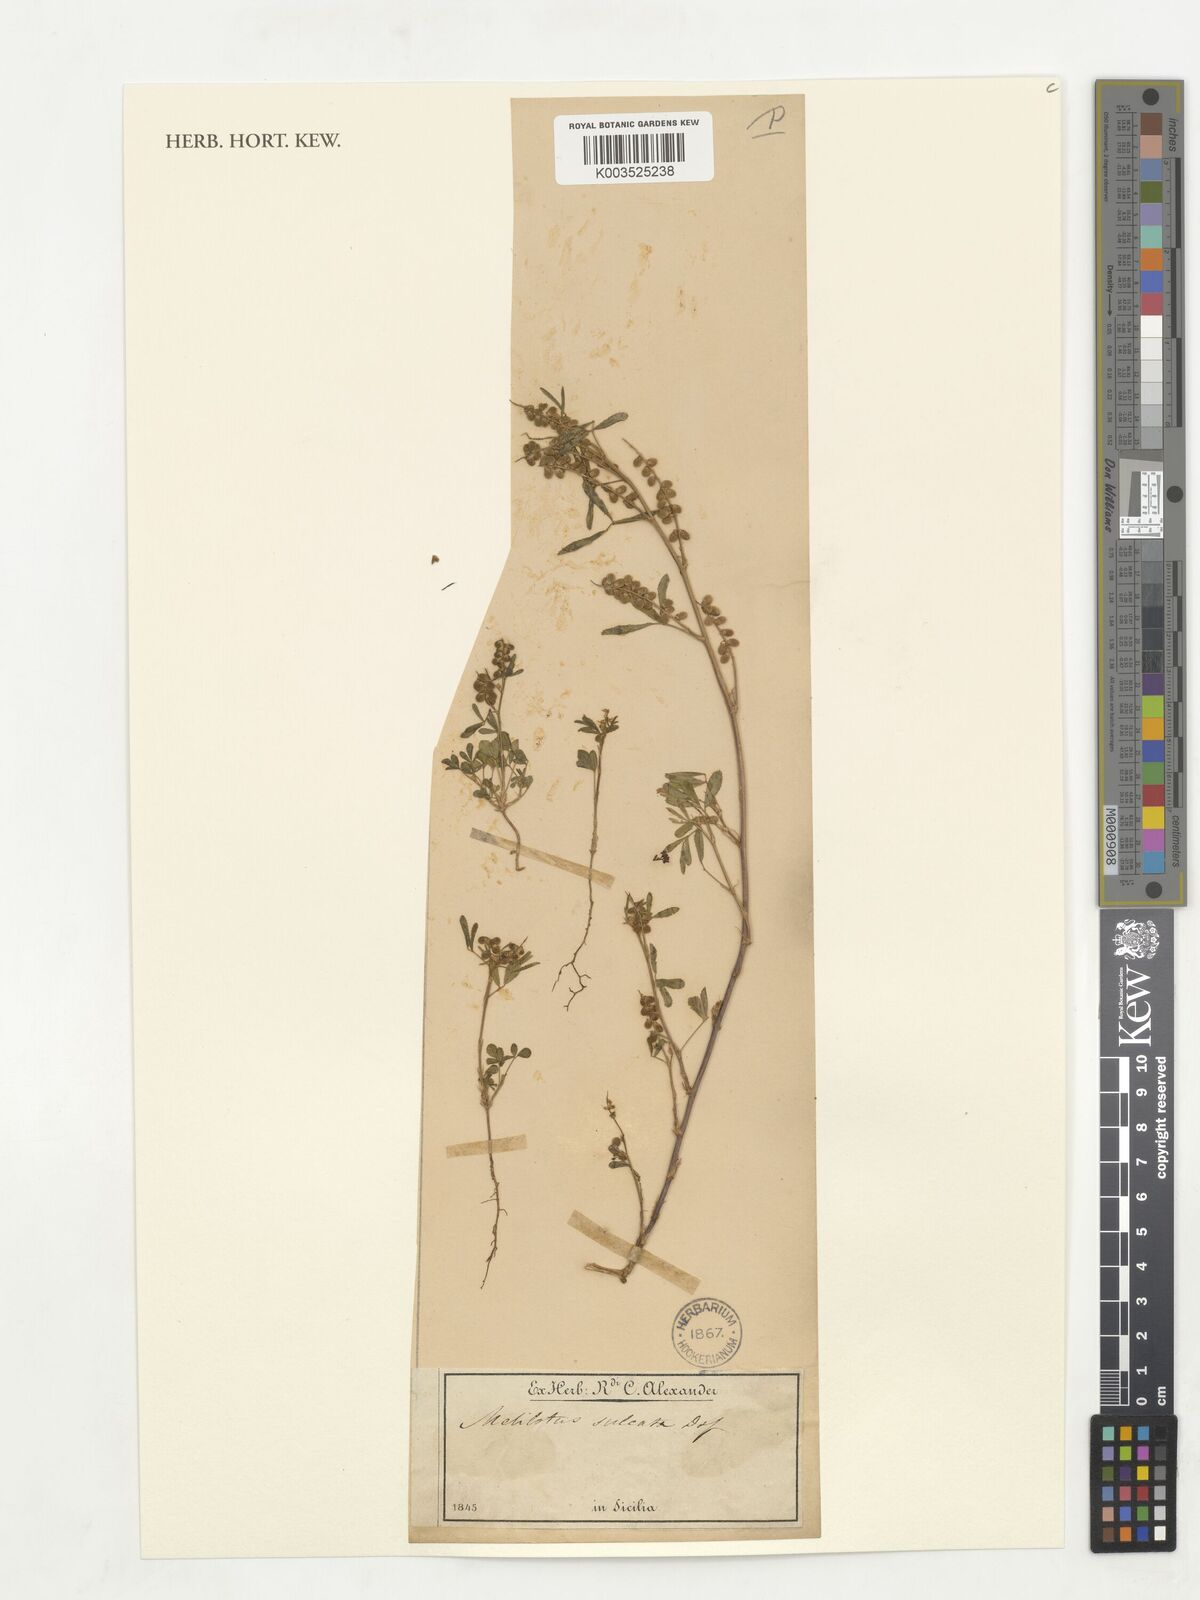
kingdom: Plantae
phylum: Tracheophyta
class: Magnoliopsida
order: Fabales
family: Fabaceae
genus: Melilotus
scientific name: Melilotus sulcatus
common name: Furrowed melilot
